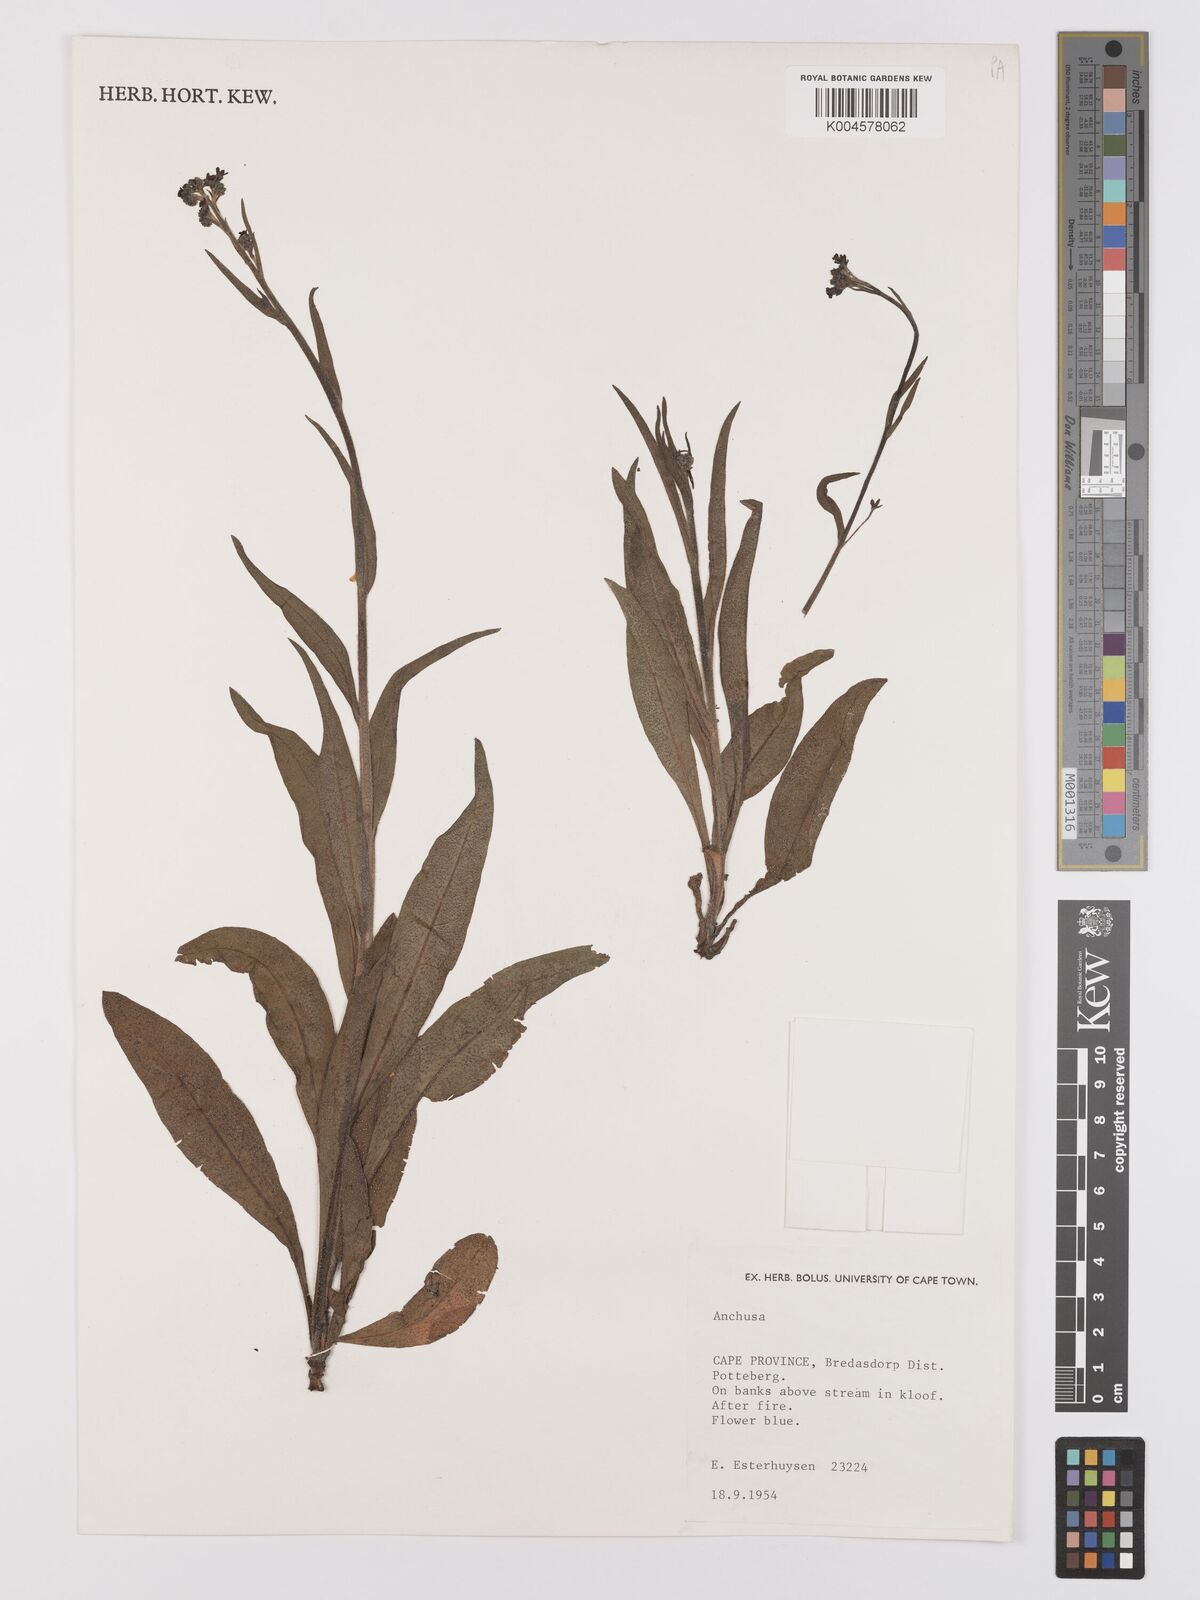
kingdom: Plantae
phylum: Tracheophyta
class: Magnoliopsida
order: Boraginales
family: Boraginaceae
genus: Anchusa
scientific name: Anchusa capensis
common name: Cape bugloss
